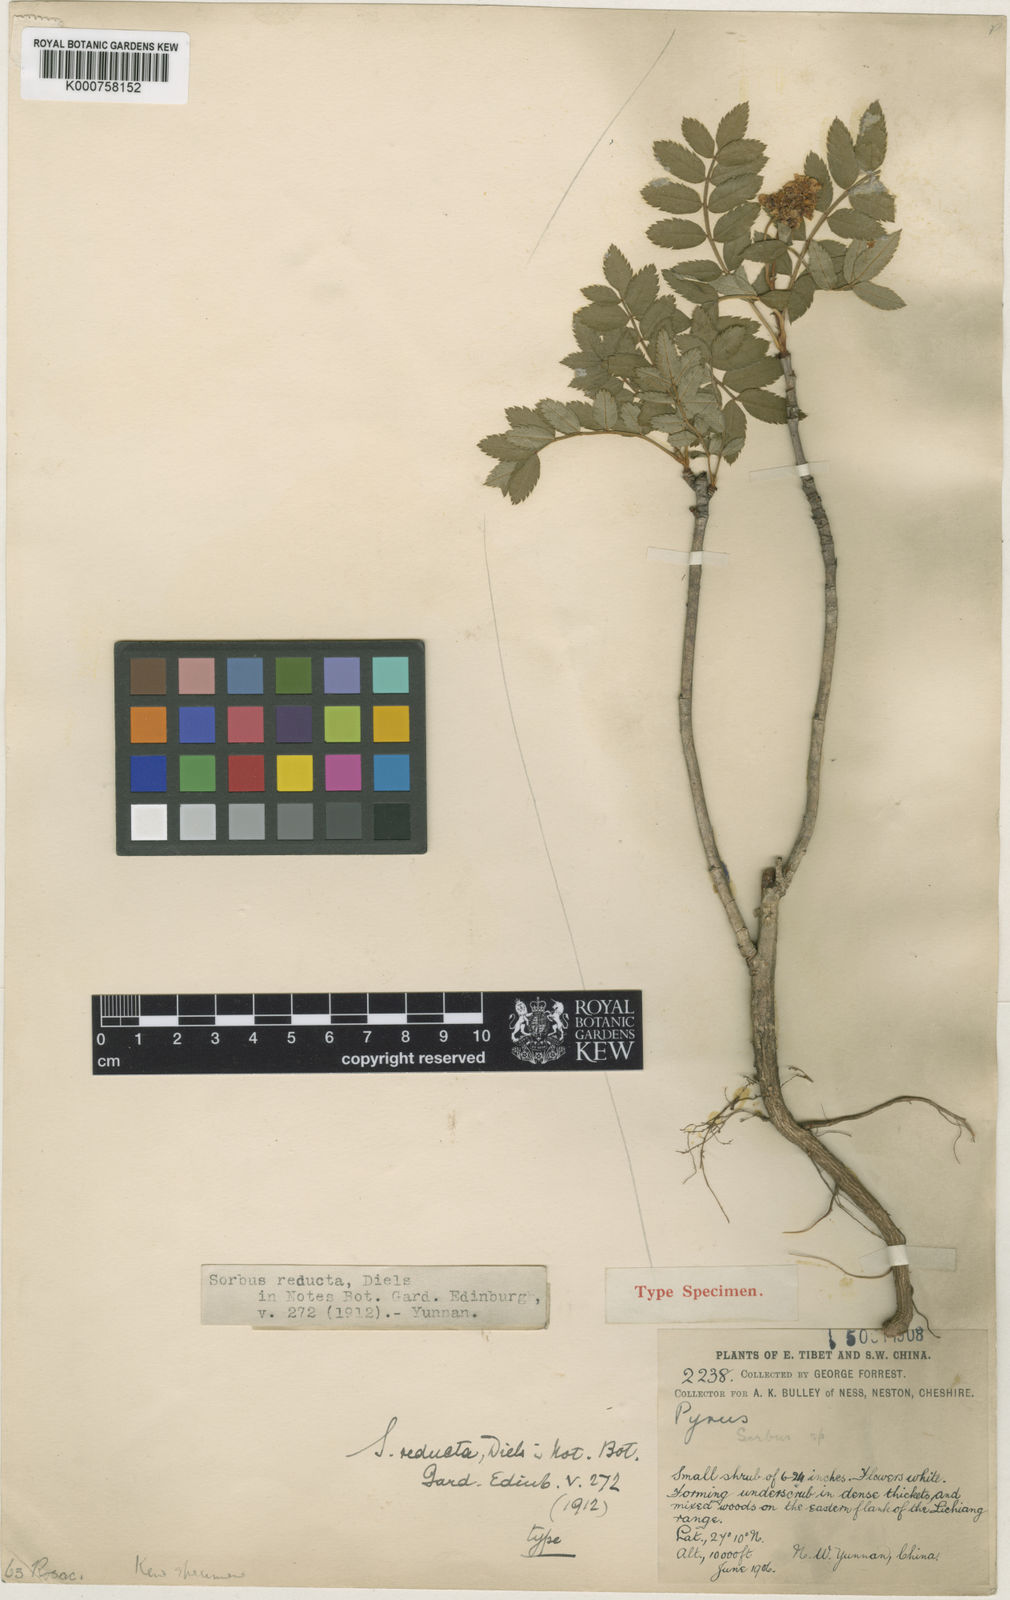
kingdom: Plantae
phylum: Tracheophyta
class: Magnoliopsida
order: Rosales
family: Rosaceae
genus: Sorbus
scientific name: Sorbus reducta
